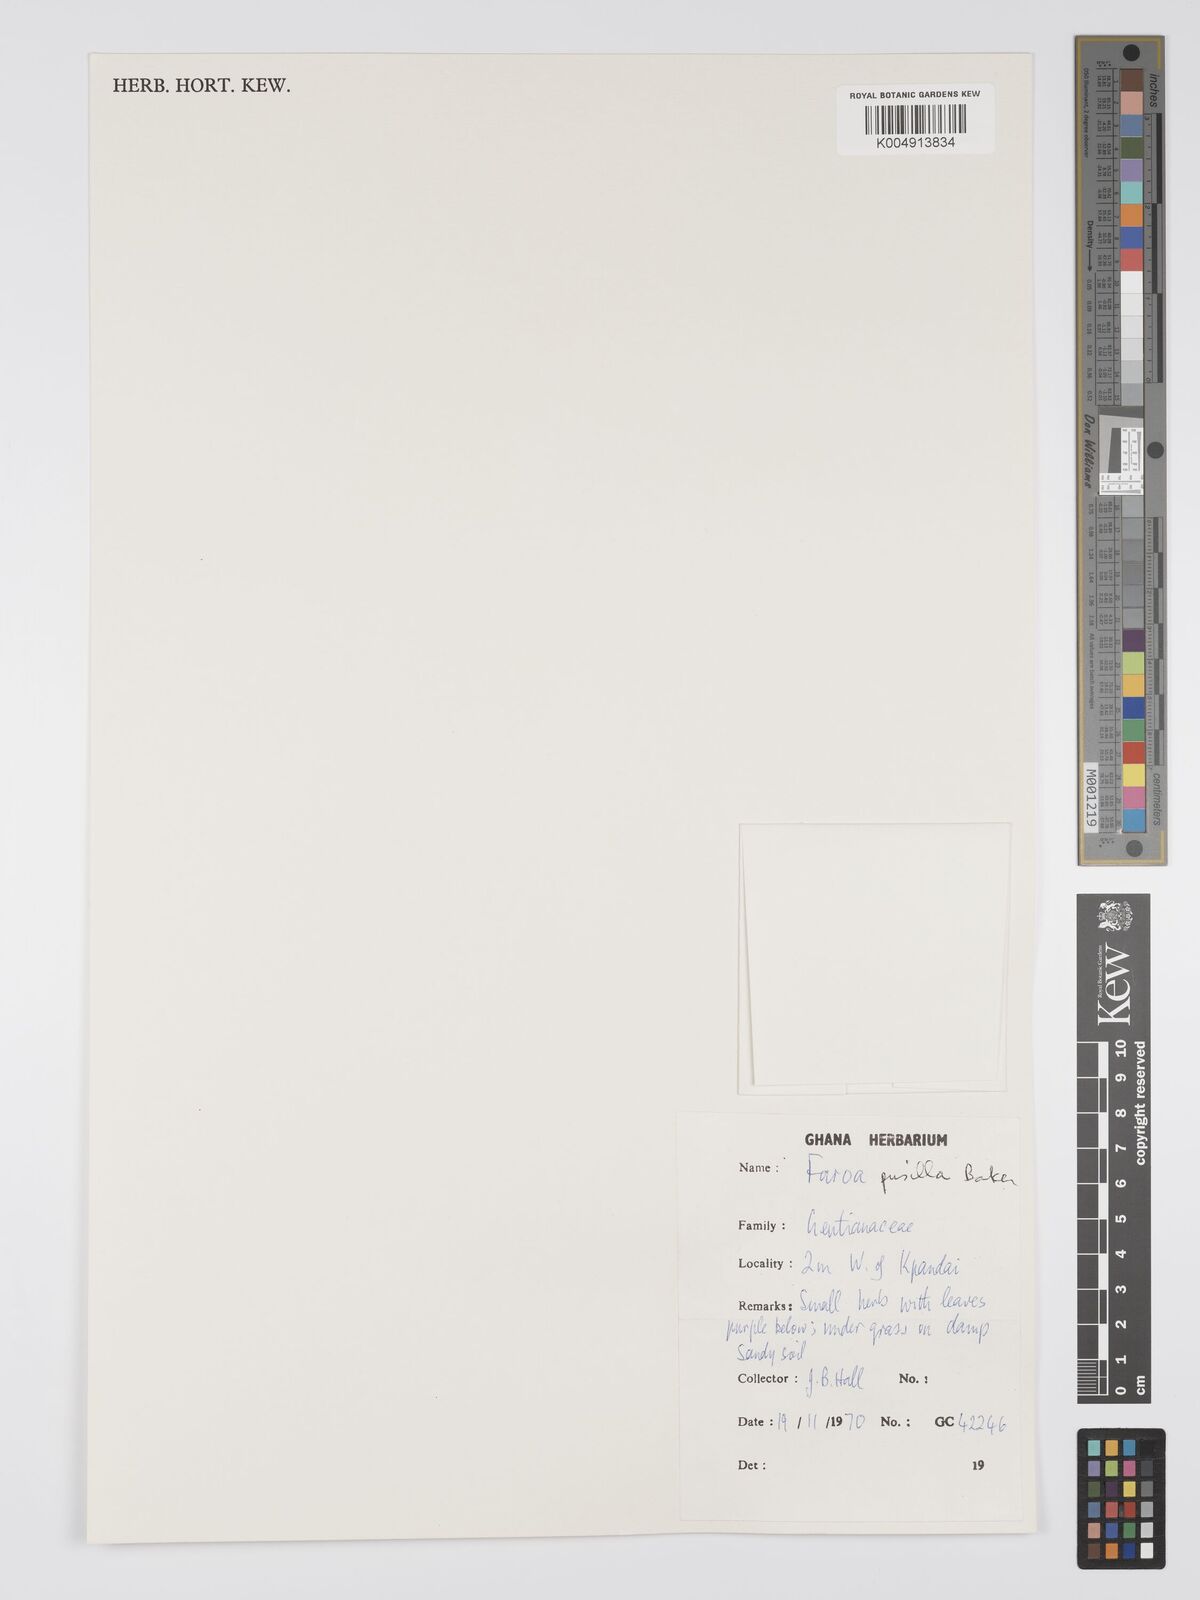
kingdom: Plantae
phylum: Tracheophyta
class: Magnoliopsida
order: Gentianales
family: Gentianaceae
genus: Faroa
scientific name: Faroa pusilla
